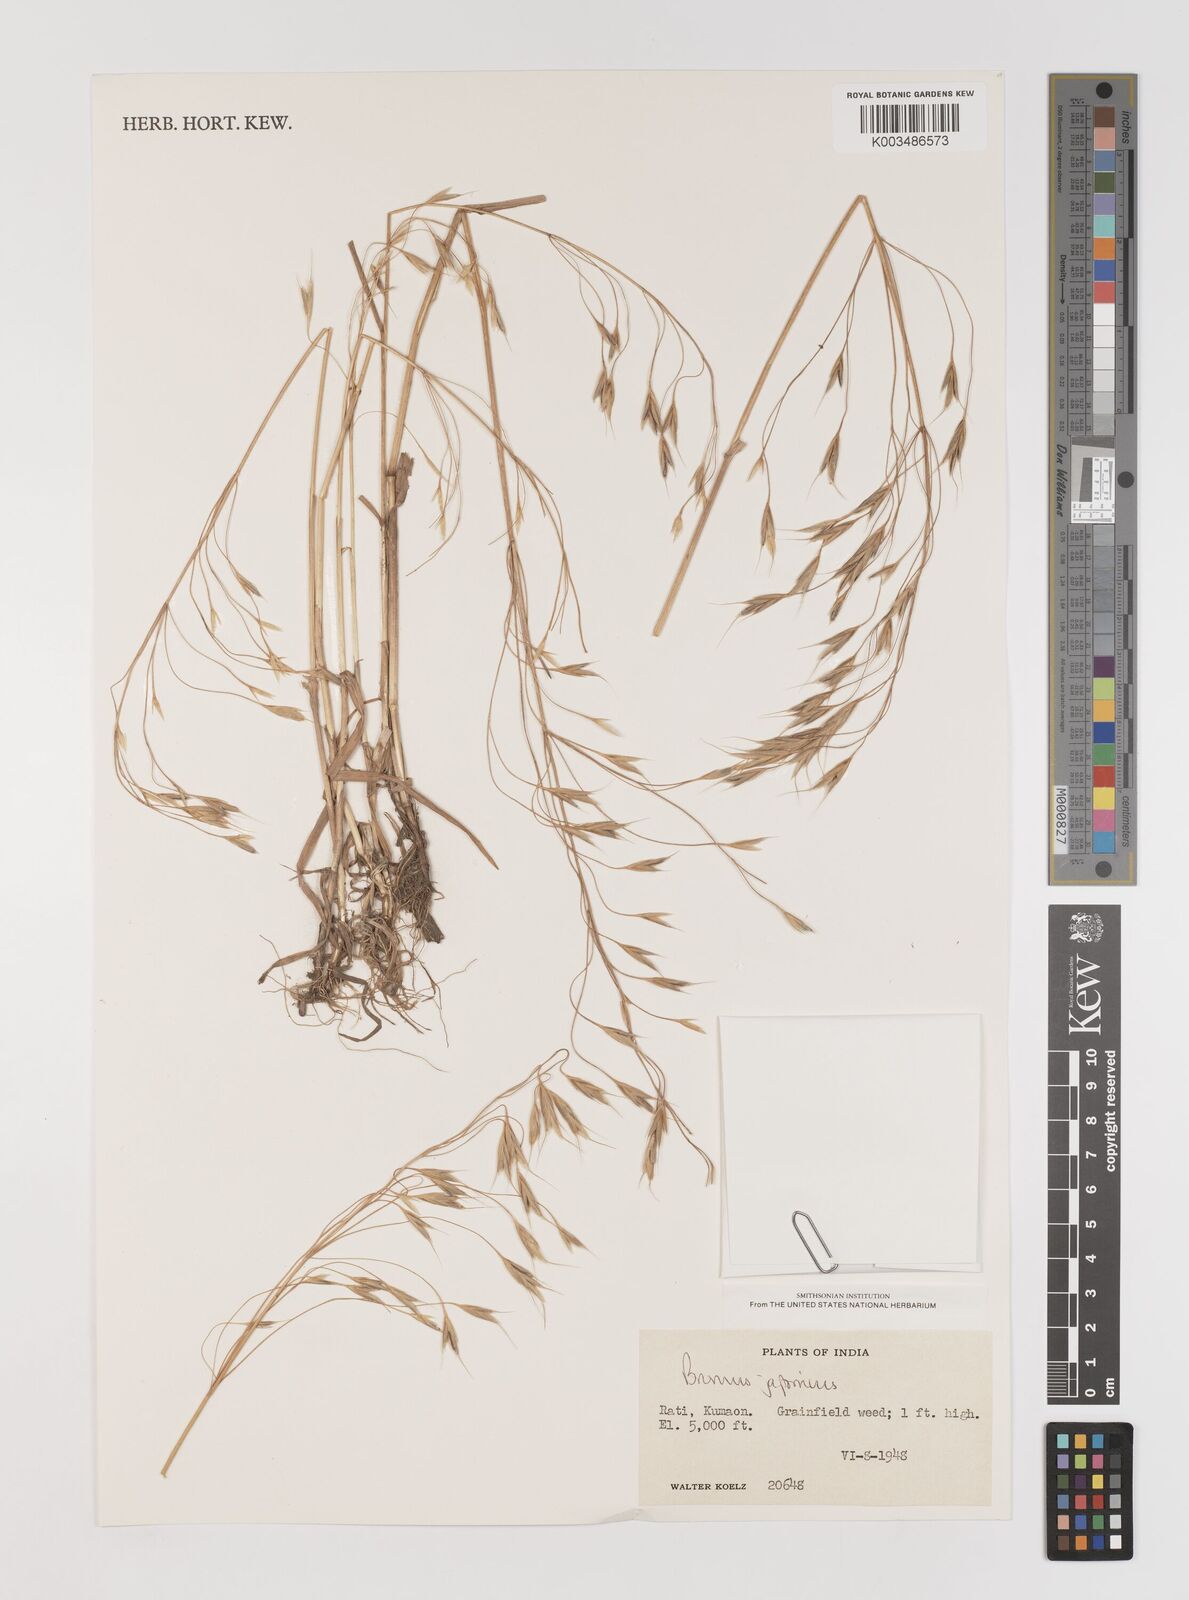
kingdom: Plantae
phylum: Tracheophyta
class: Liliopsida
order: Poales
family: Poaceae
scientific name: Poaceae
